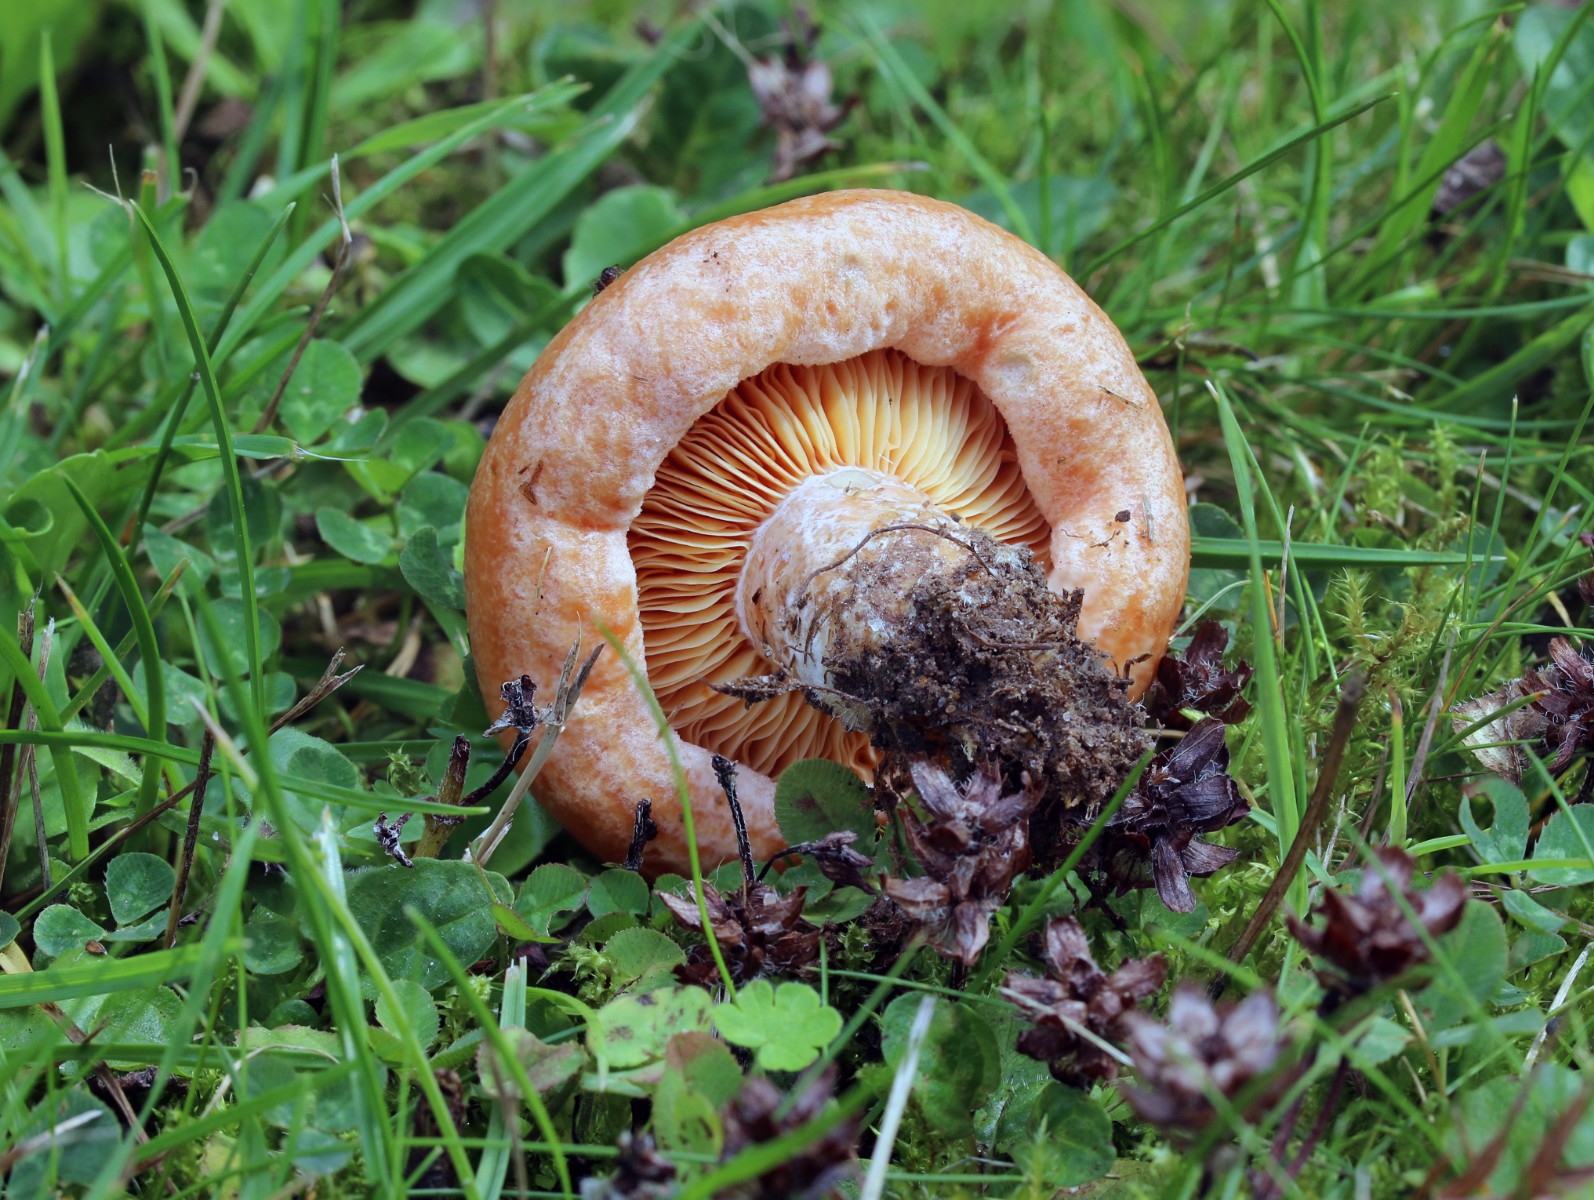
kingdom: Fungi
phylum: Basidiomycota
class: Agaricomycetes
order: Russulales
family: Russulaceae
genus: Lactarius
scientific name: Lactarius deliciosus
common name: velsmagende mælkehat
